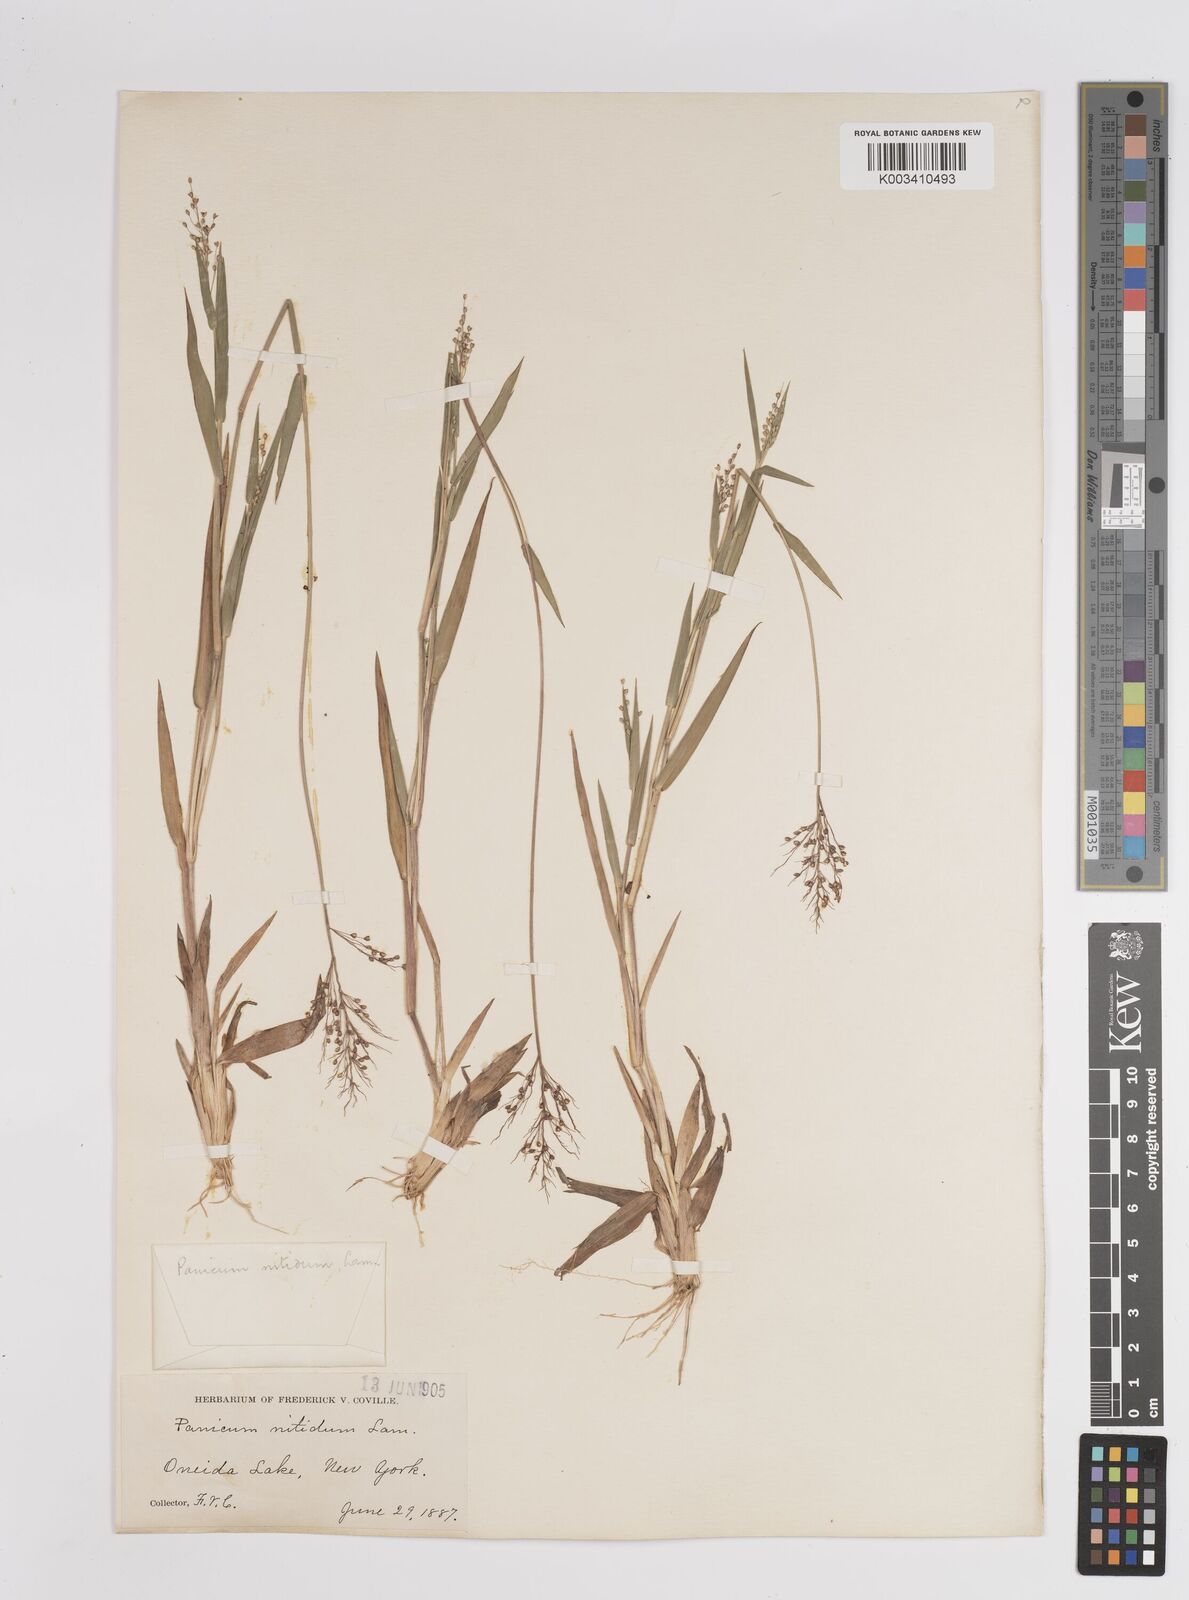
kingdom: Plantae
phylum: Tracheophyta
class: Liliopsida
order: Poales
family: Poaceae
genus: Dichanthelium
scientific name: Dichanthelium polyanthes
